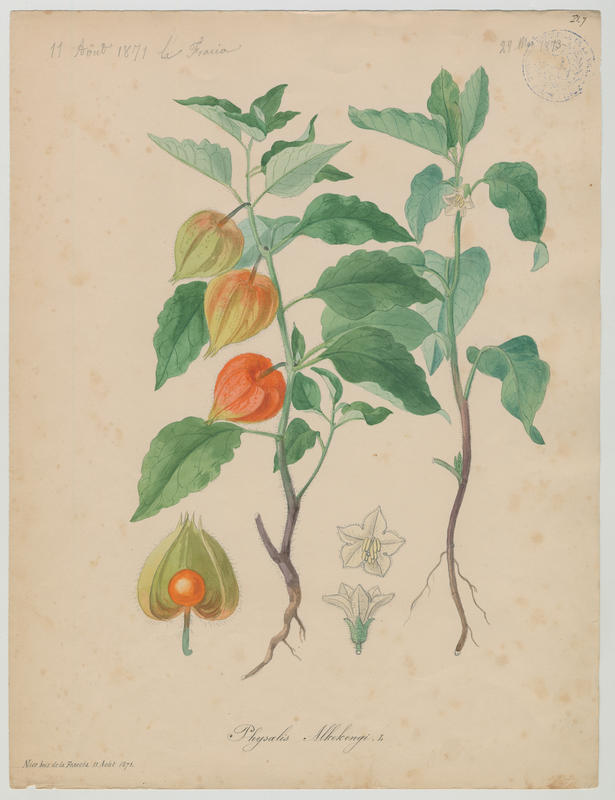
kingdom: Plantae
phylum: Tracheophyta
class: Magnoliopsida
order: Solanales
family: Solanaceae
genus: Alkekengi
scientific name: Alkekengi officinarum
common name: Japanese-lantern
